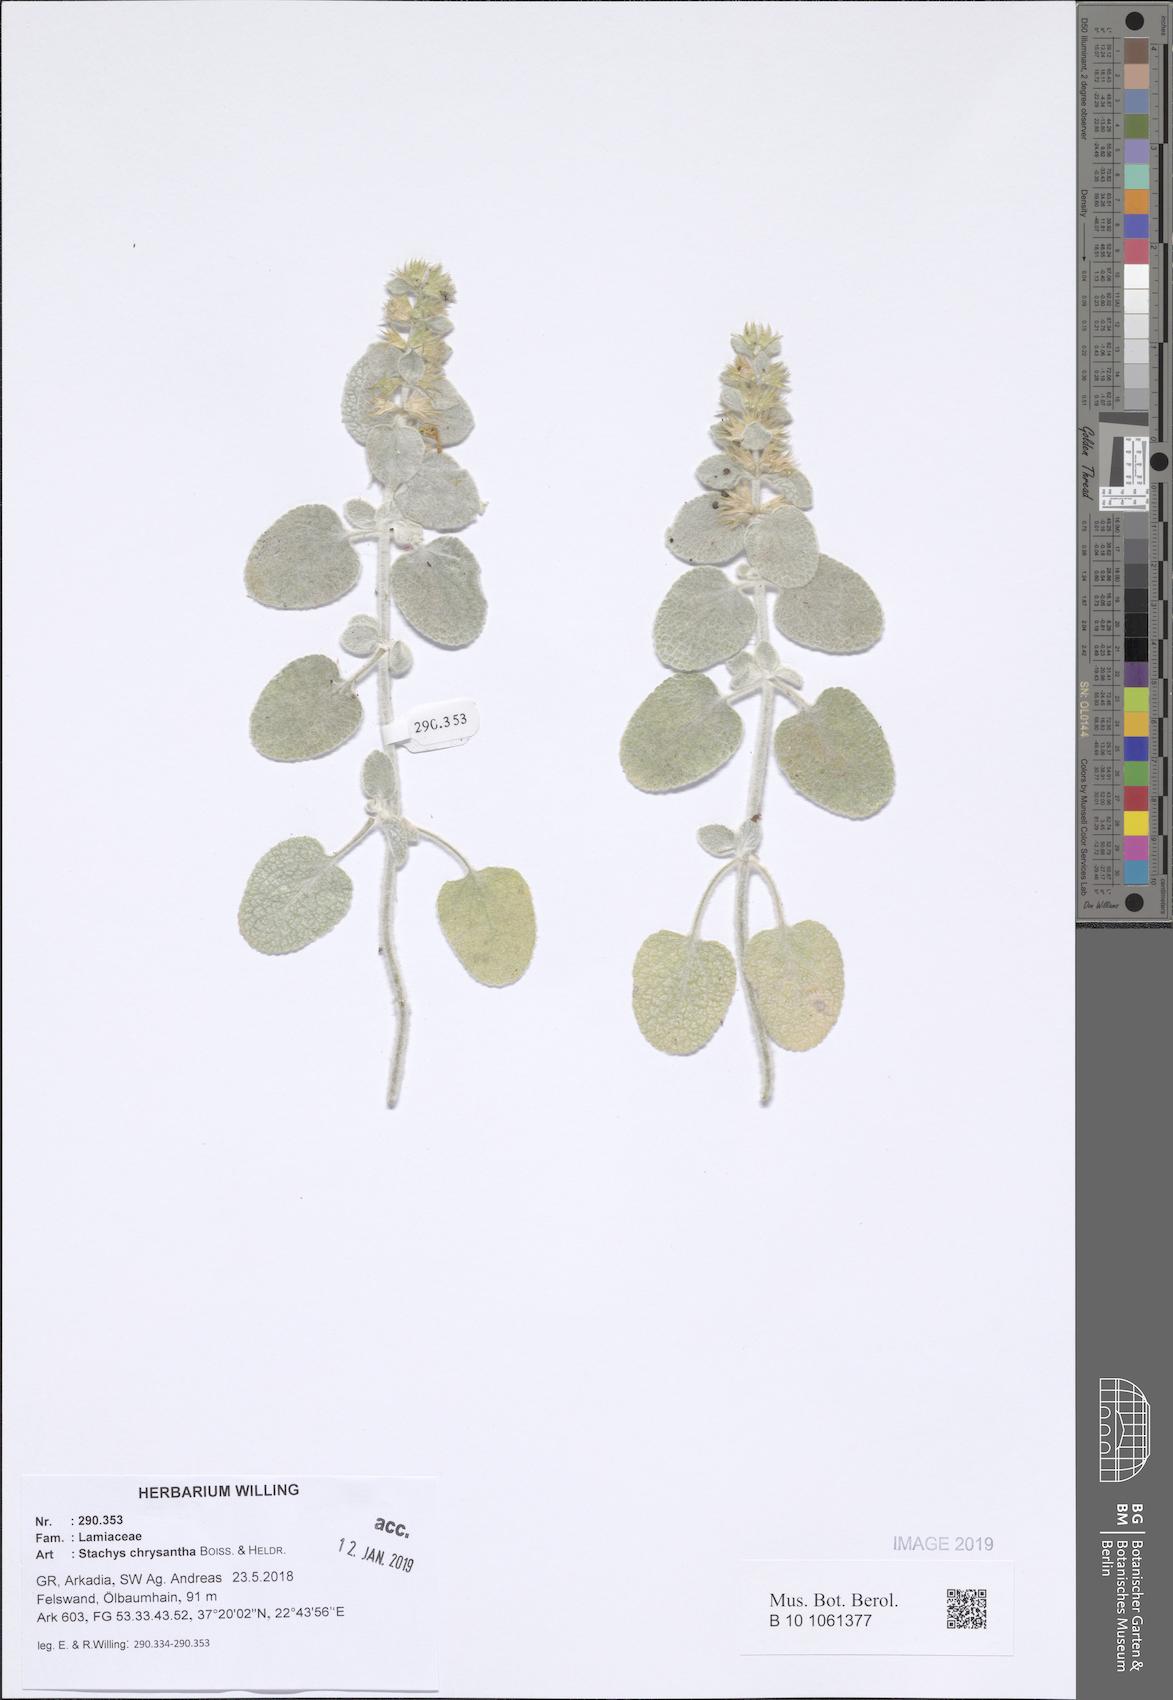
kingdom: Plantae
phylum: Tracheophyta
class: Magnoliopsida
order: Lamiales
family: Lamiaceae
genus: Stachys
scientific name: Stachys chrysantha
